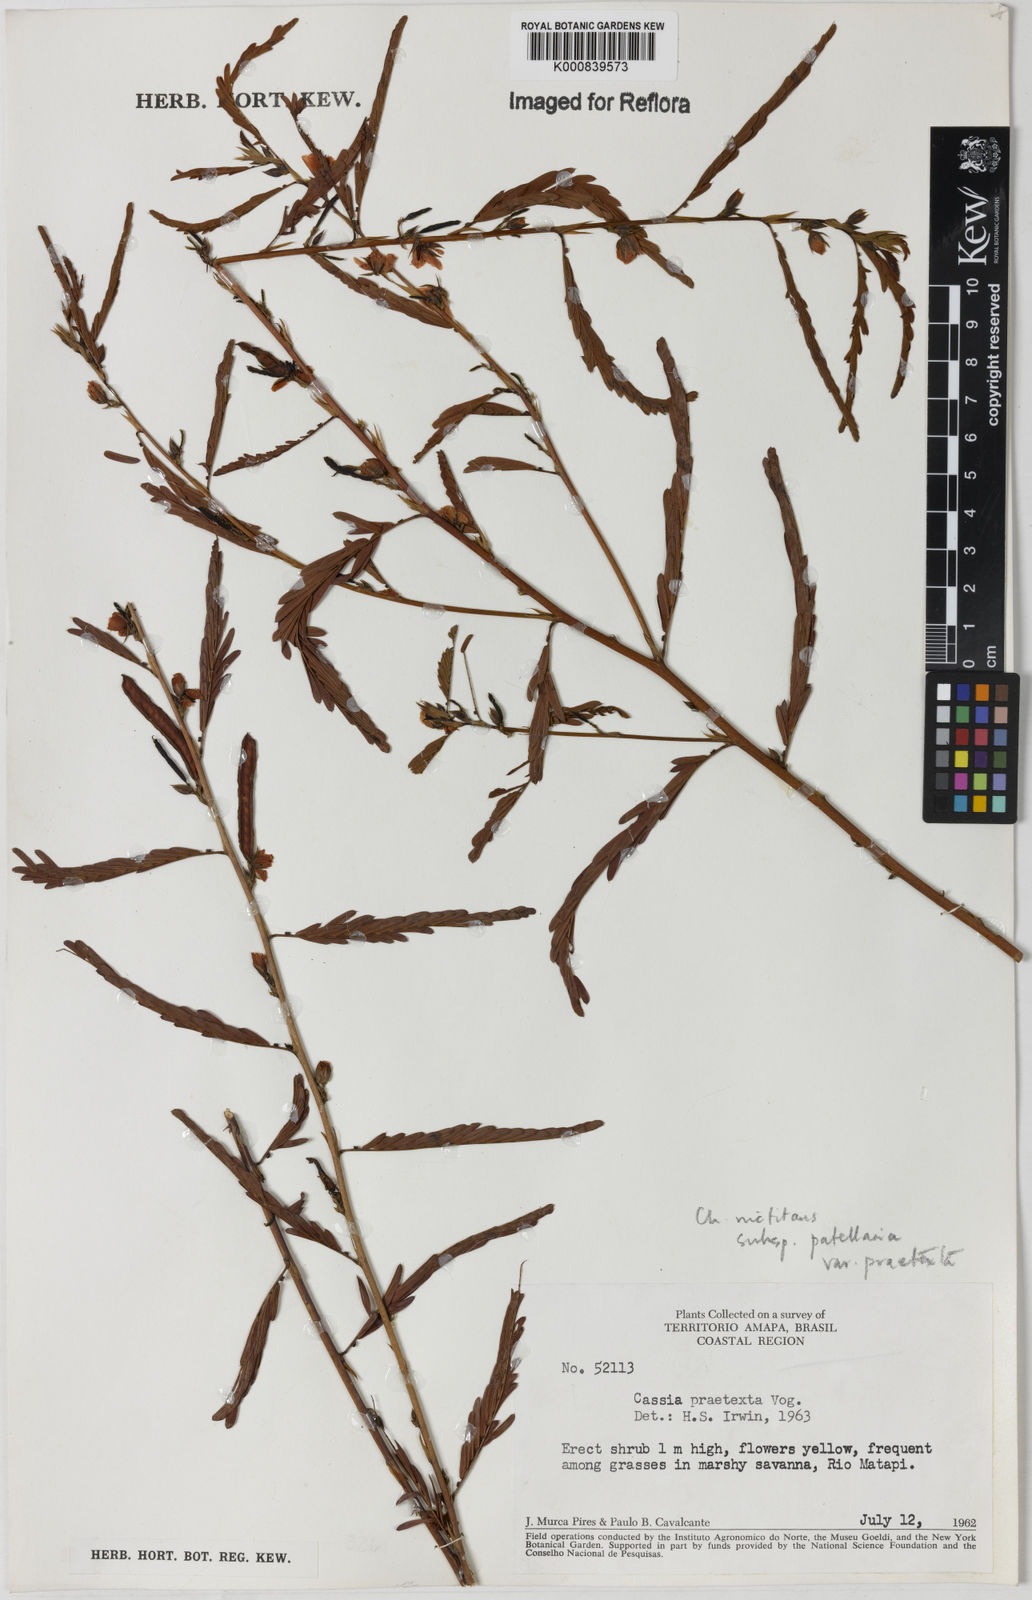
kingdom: Plantae
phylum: Tracheophyta
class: Magnoliopsida
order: Fabales
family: Fabaceae
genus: Chamaecrista
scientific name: Chamaecrista nictitans
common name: Sensitive cassia
